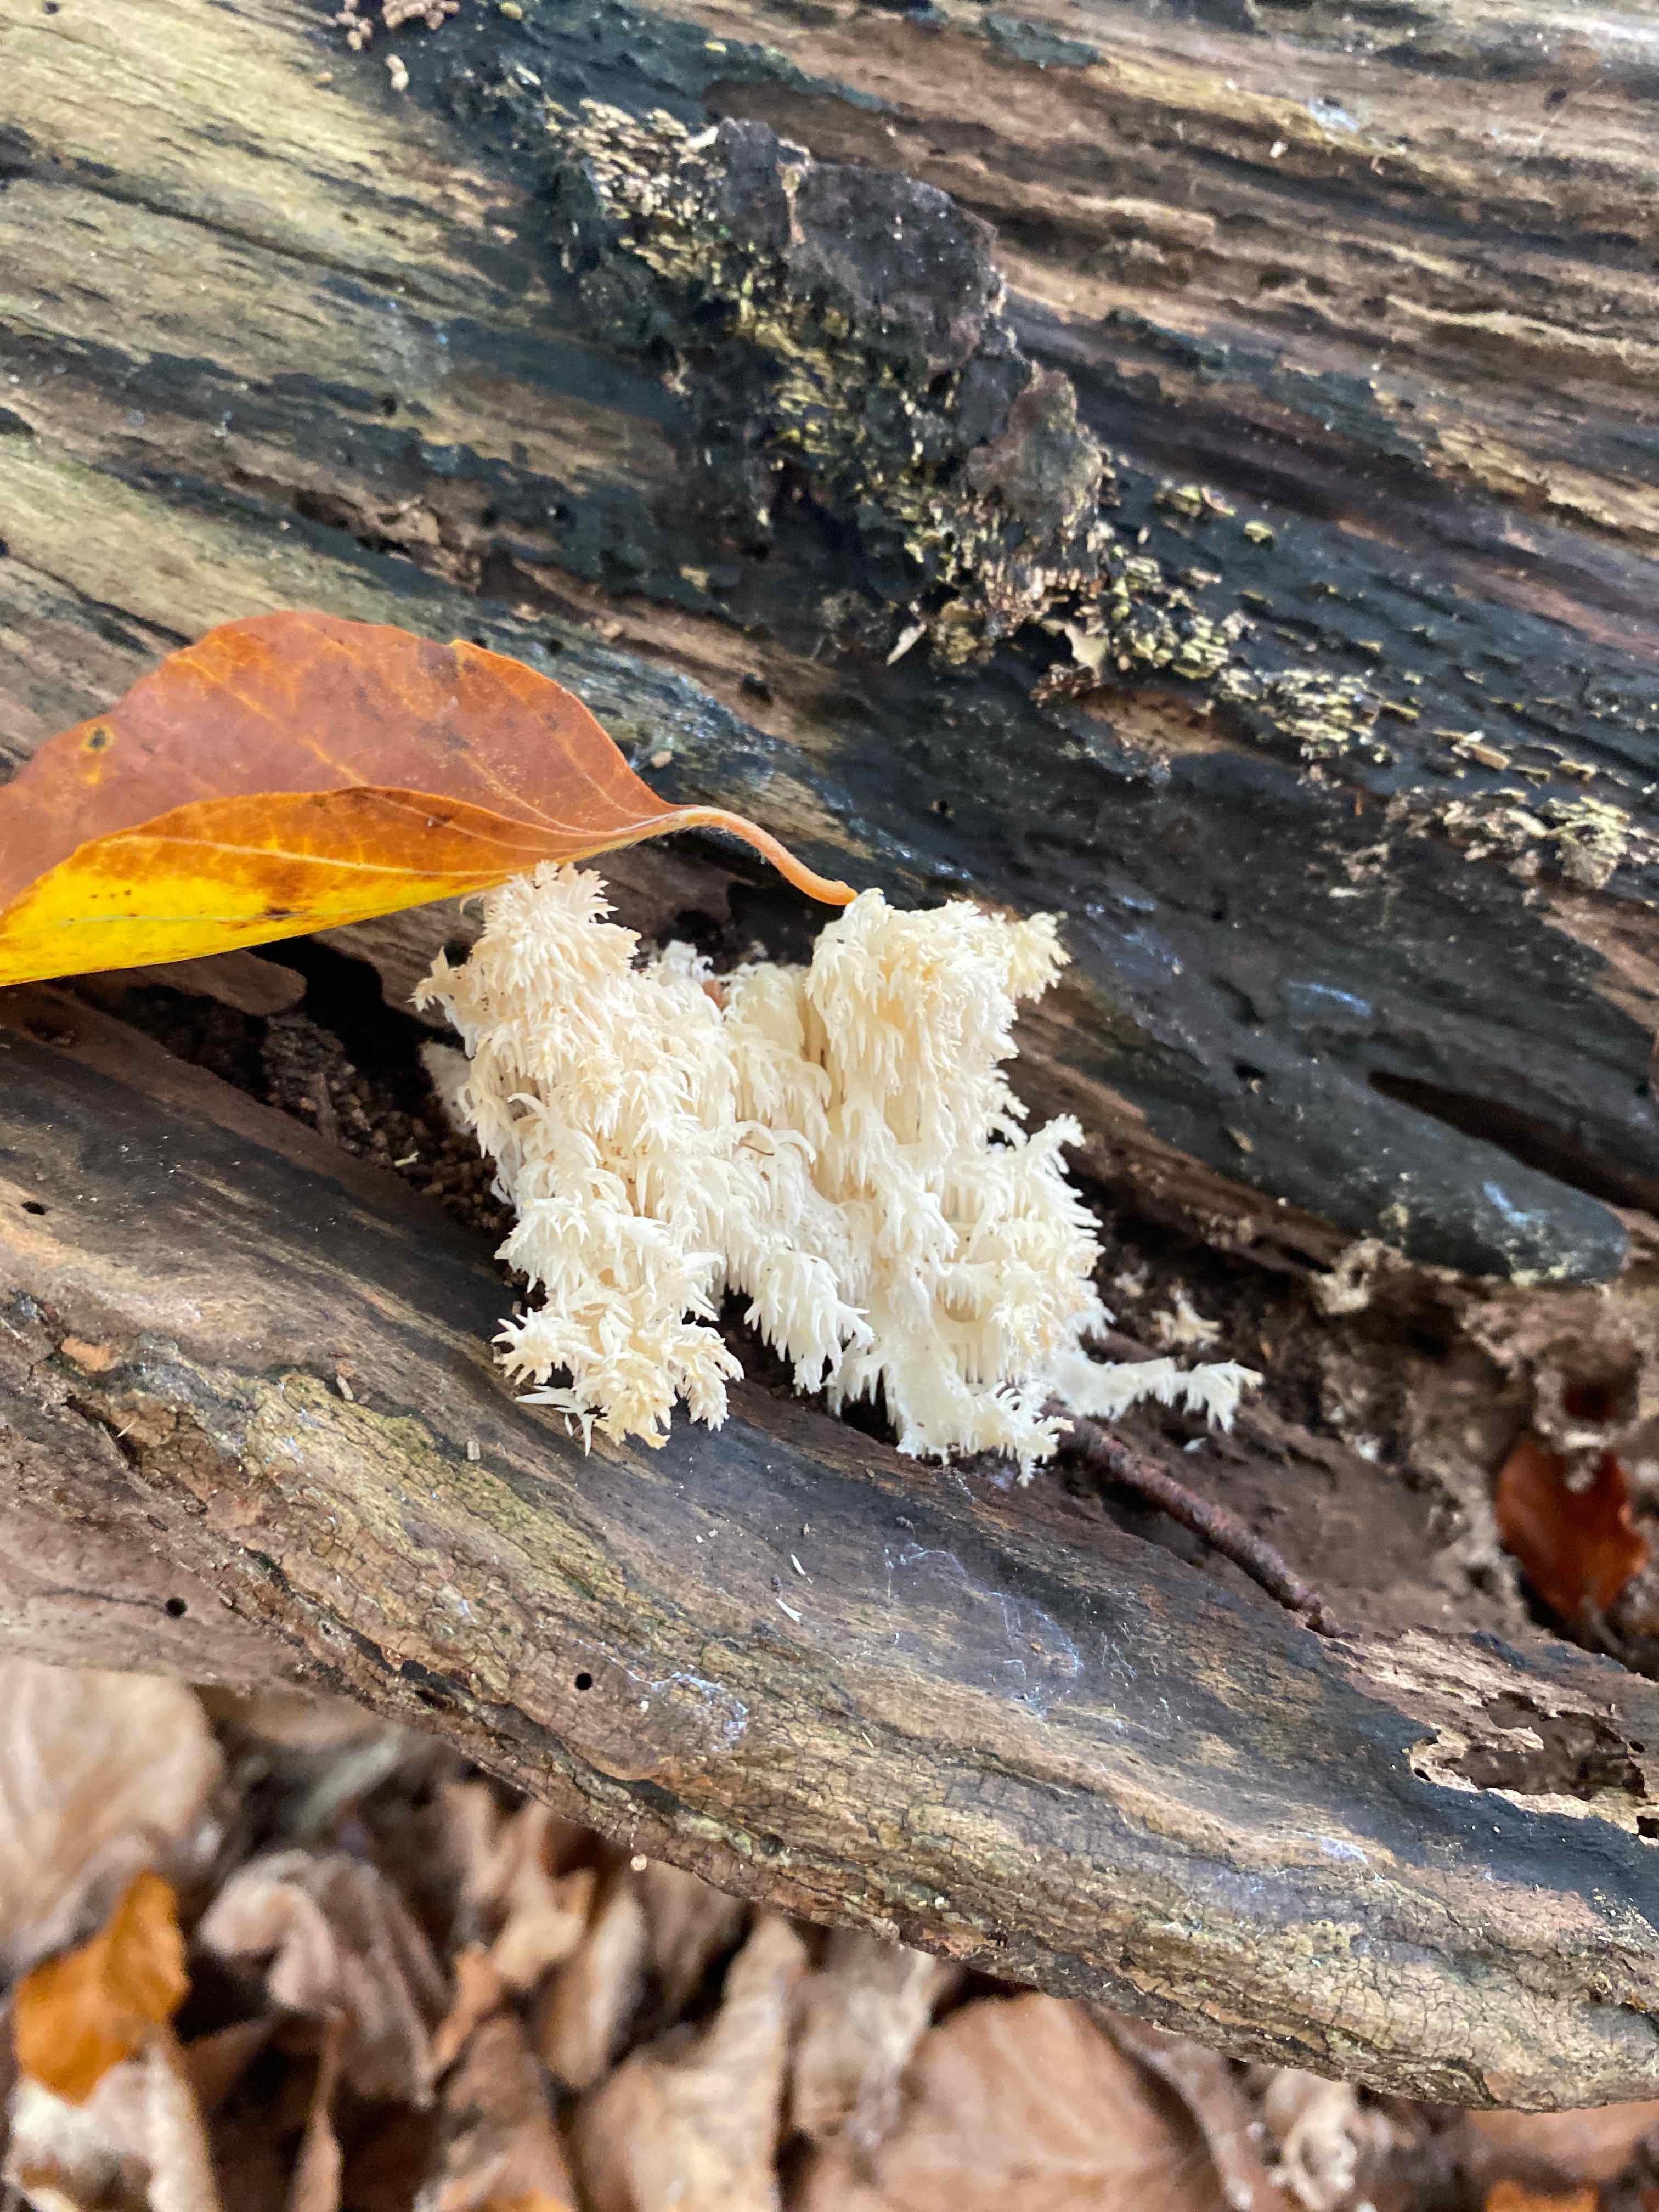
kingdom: Fungi
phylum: Basidiomycota
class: Agaricomycetes
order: Russulales
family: Hericiaceae
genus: Hericium
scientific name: Hericium coralloides
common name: koralpigsvamp
